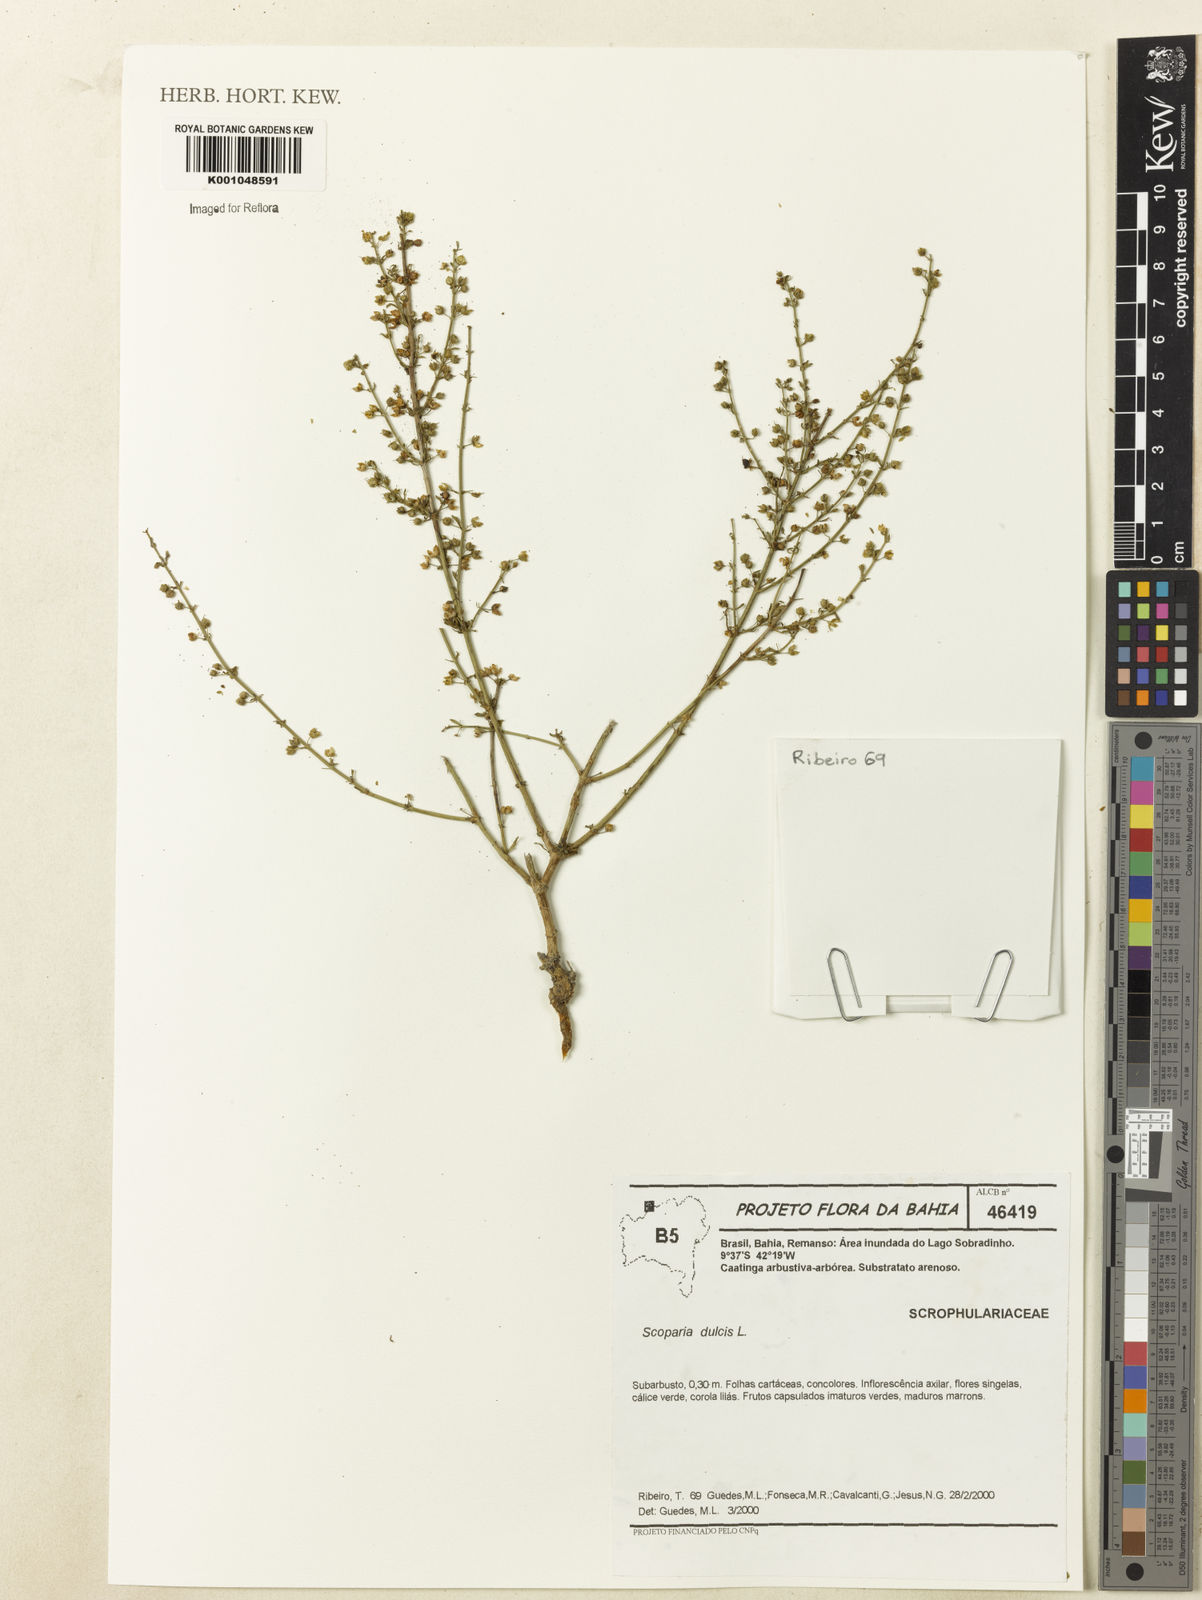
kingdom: Plantae
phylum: Tracheophyta
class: Magnoliopsida
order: Lamiales
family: Plantaginaceae
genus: Scoparia
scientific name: Scoparia dulcis
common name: Scoparia-weed
